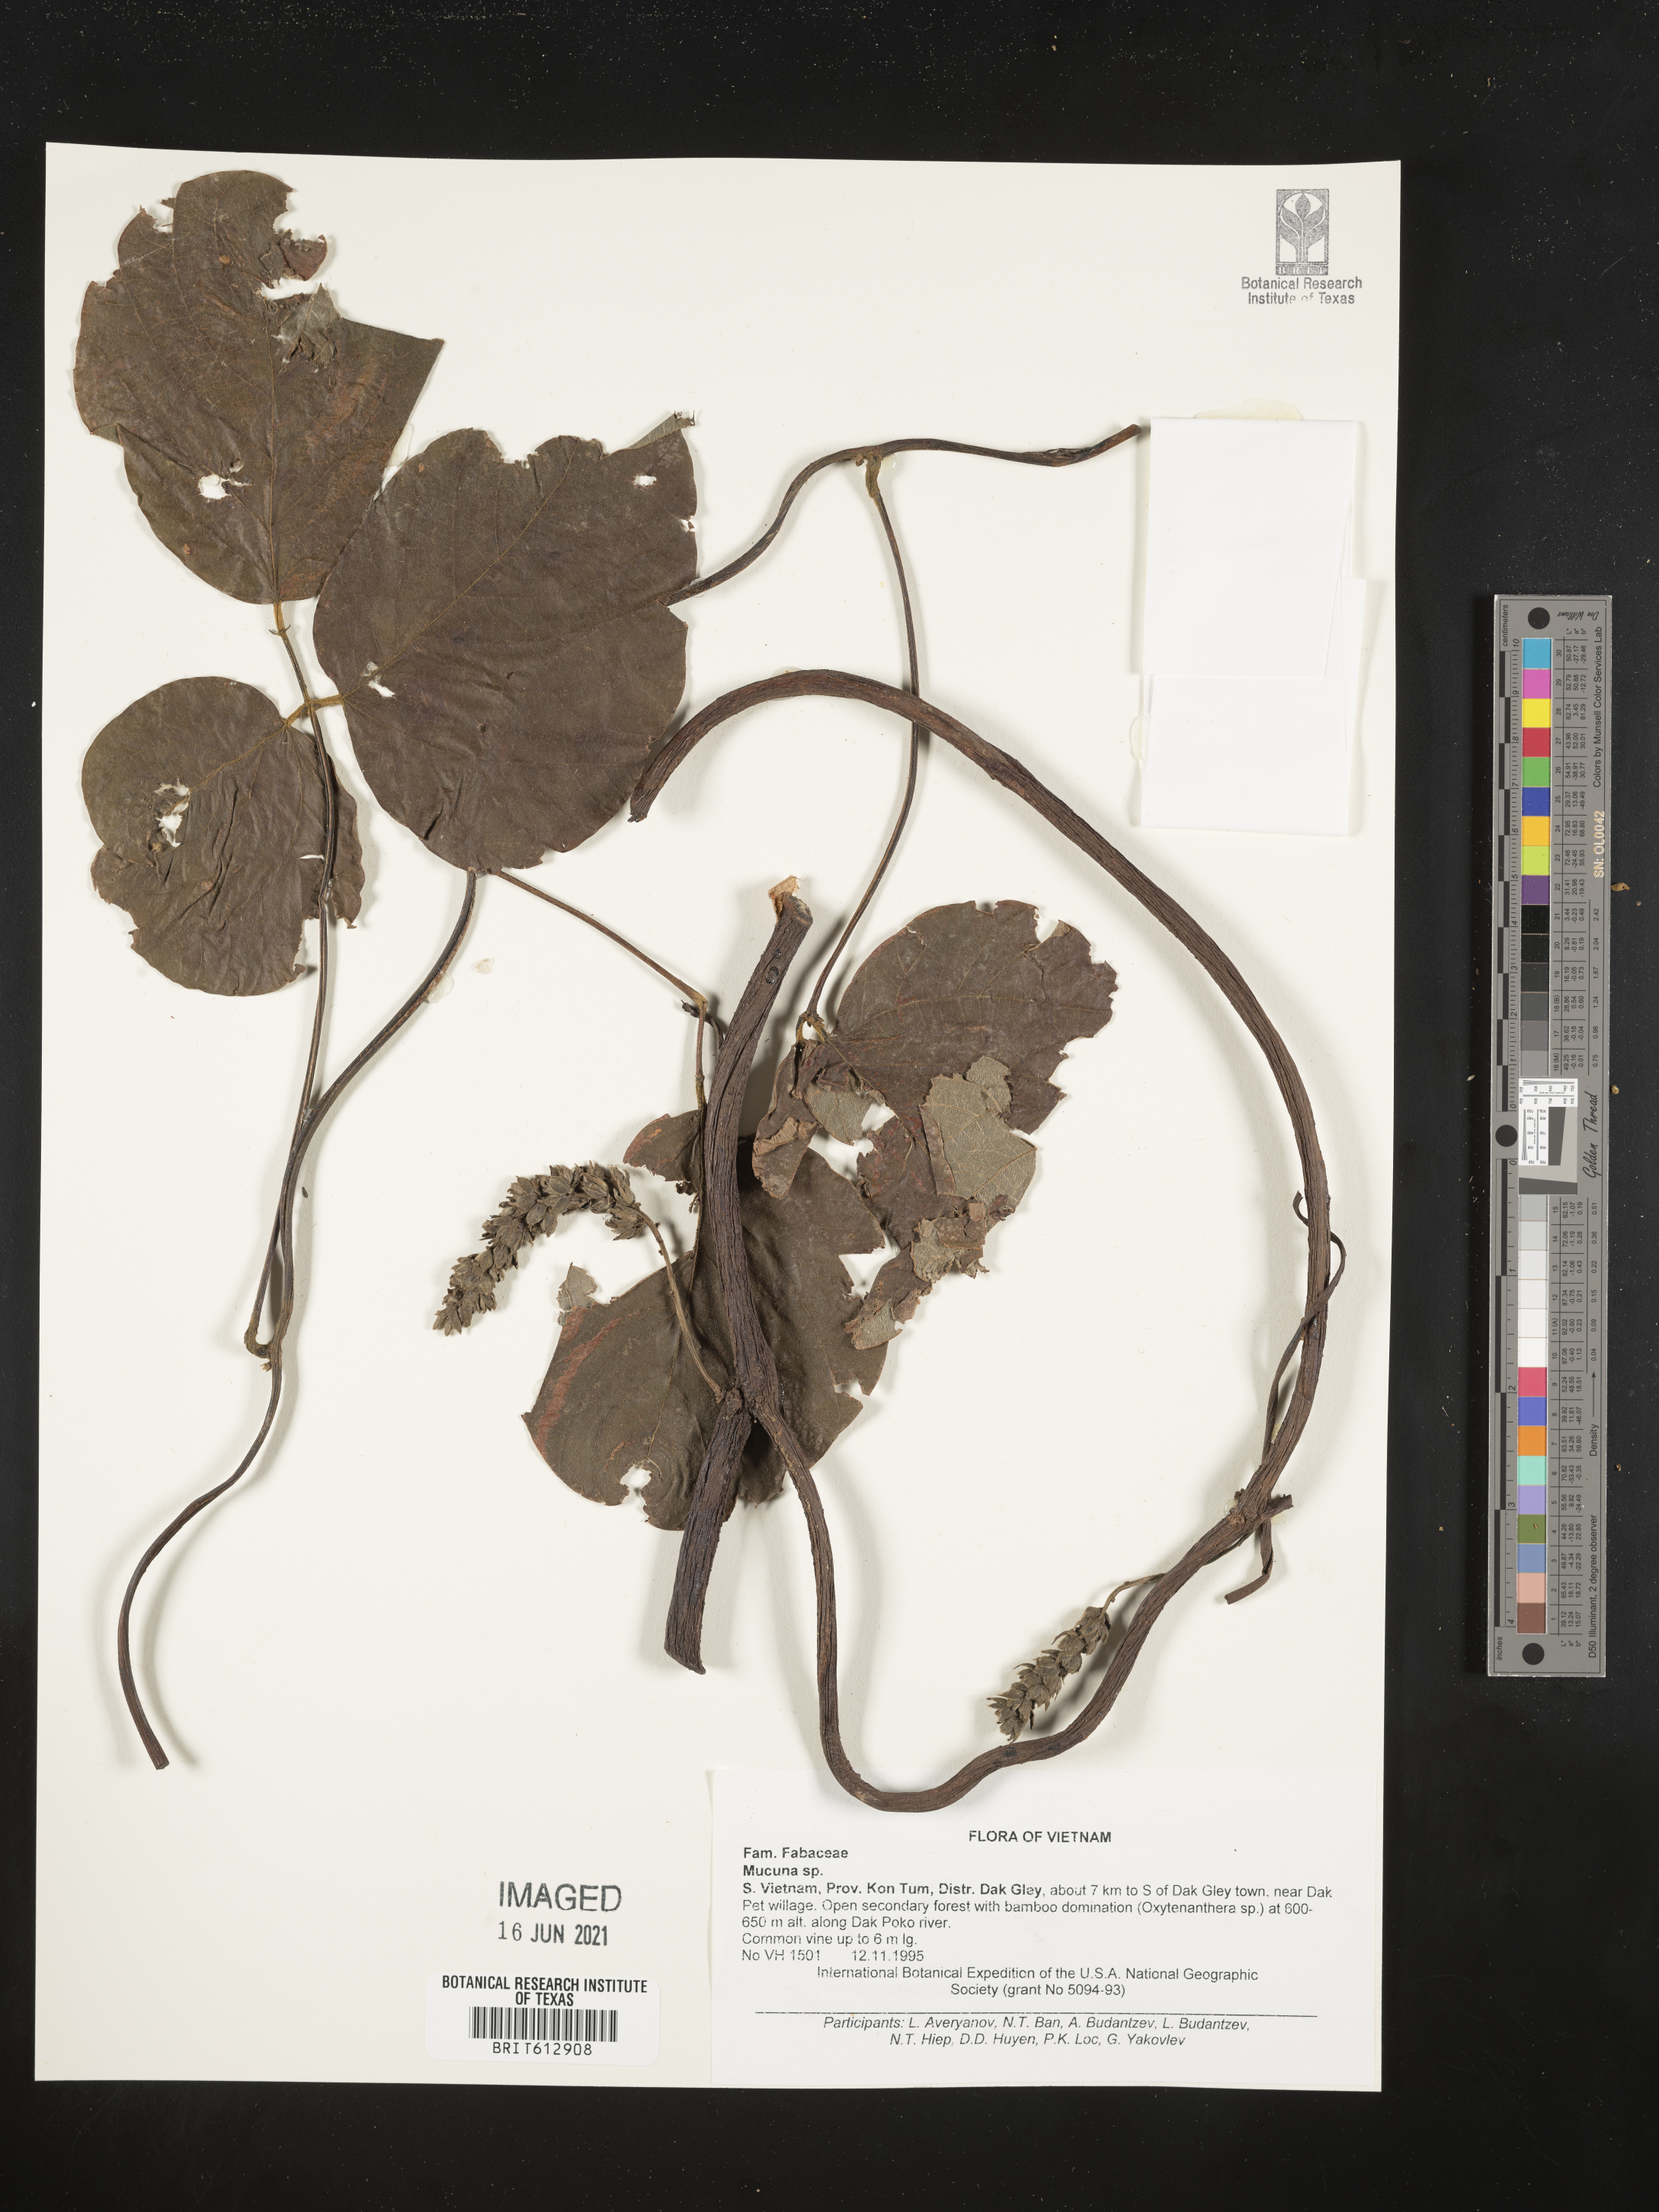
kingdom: Plantae
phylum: Tracheophyta
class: Magnoliopsida
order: Fabales
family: Fabaceae
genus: Mucuna
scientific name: Mucuna
